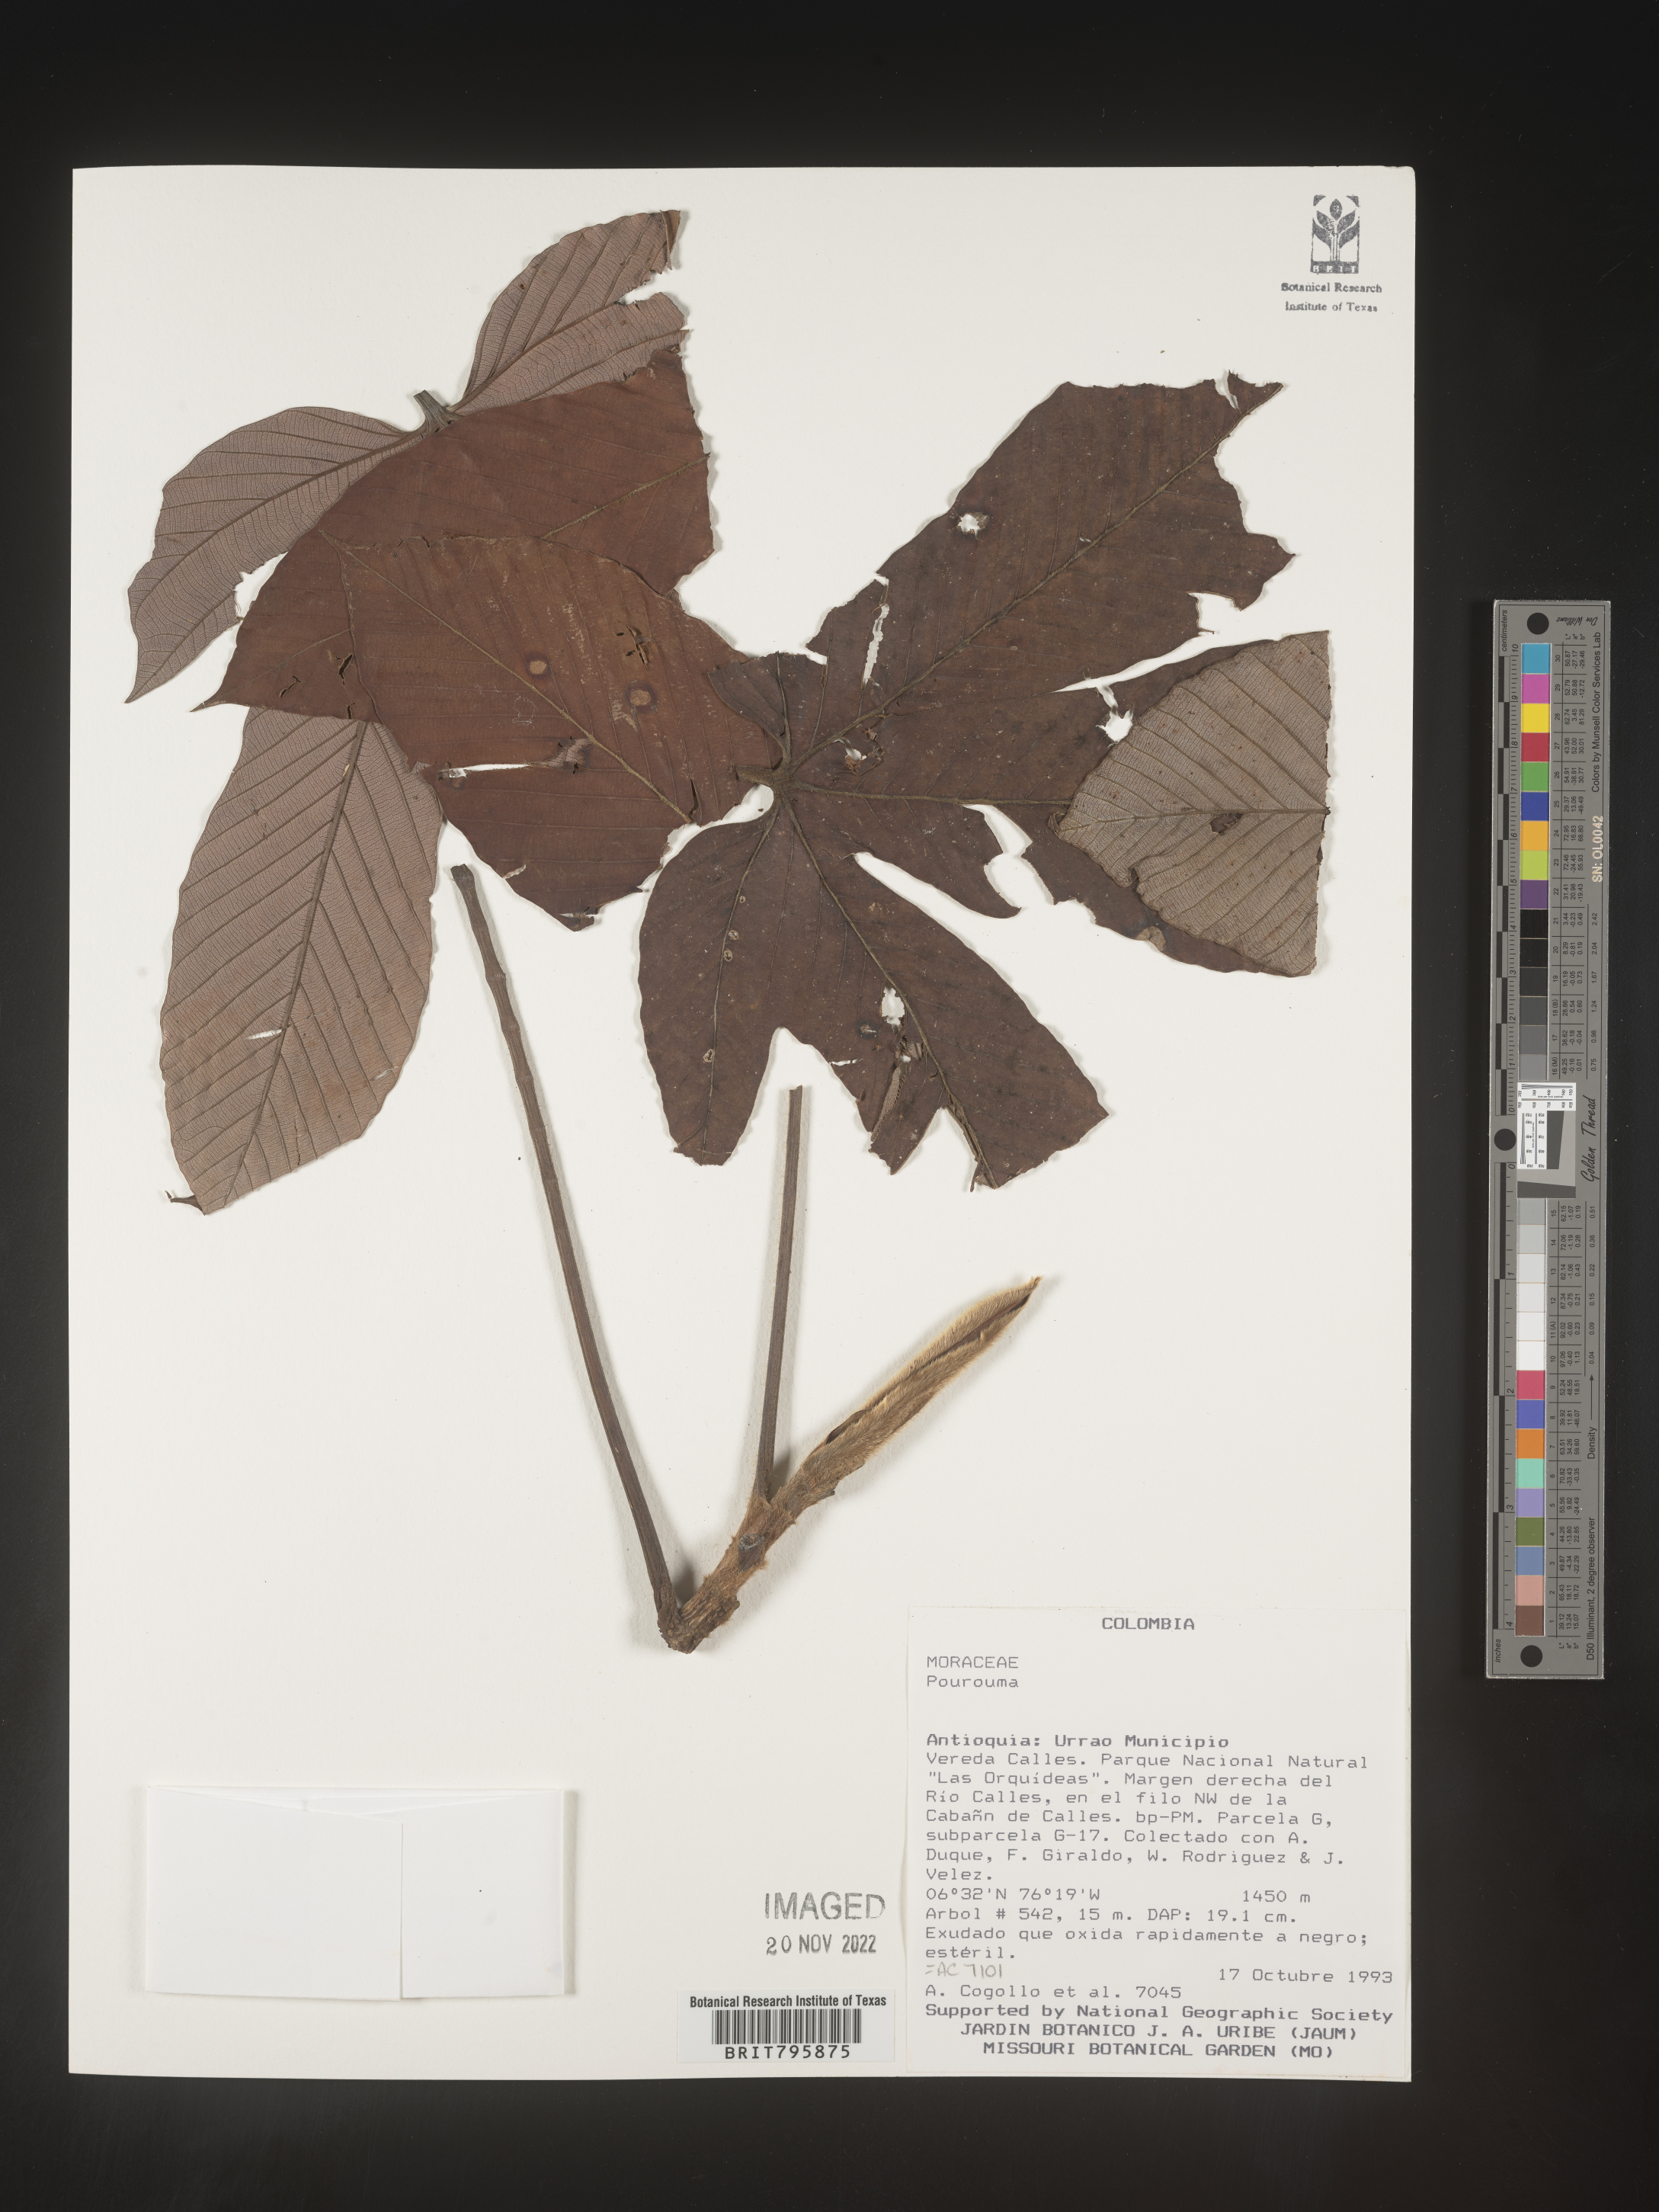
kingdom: Plantae
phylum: Tracheophyta
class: Magnoliopsida
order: Rosales
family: Urticaceae
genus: Pourouma
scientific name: Pourouma
